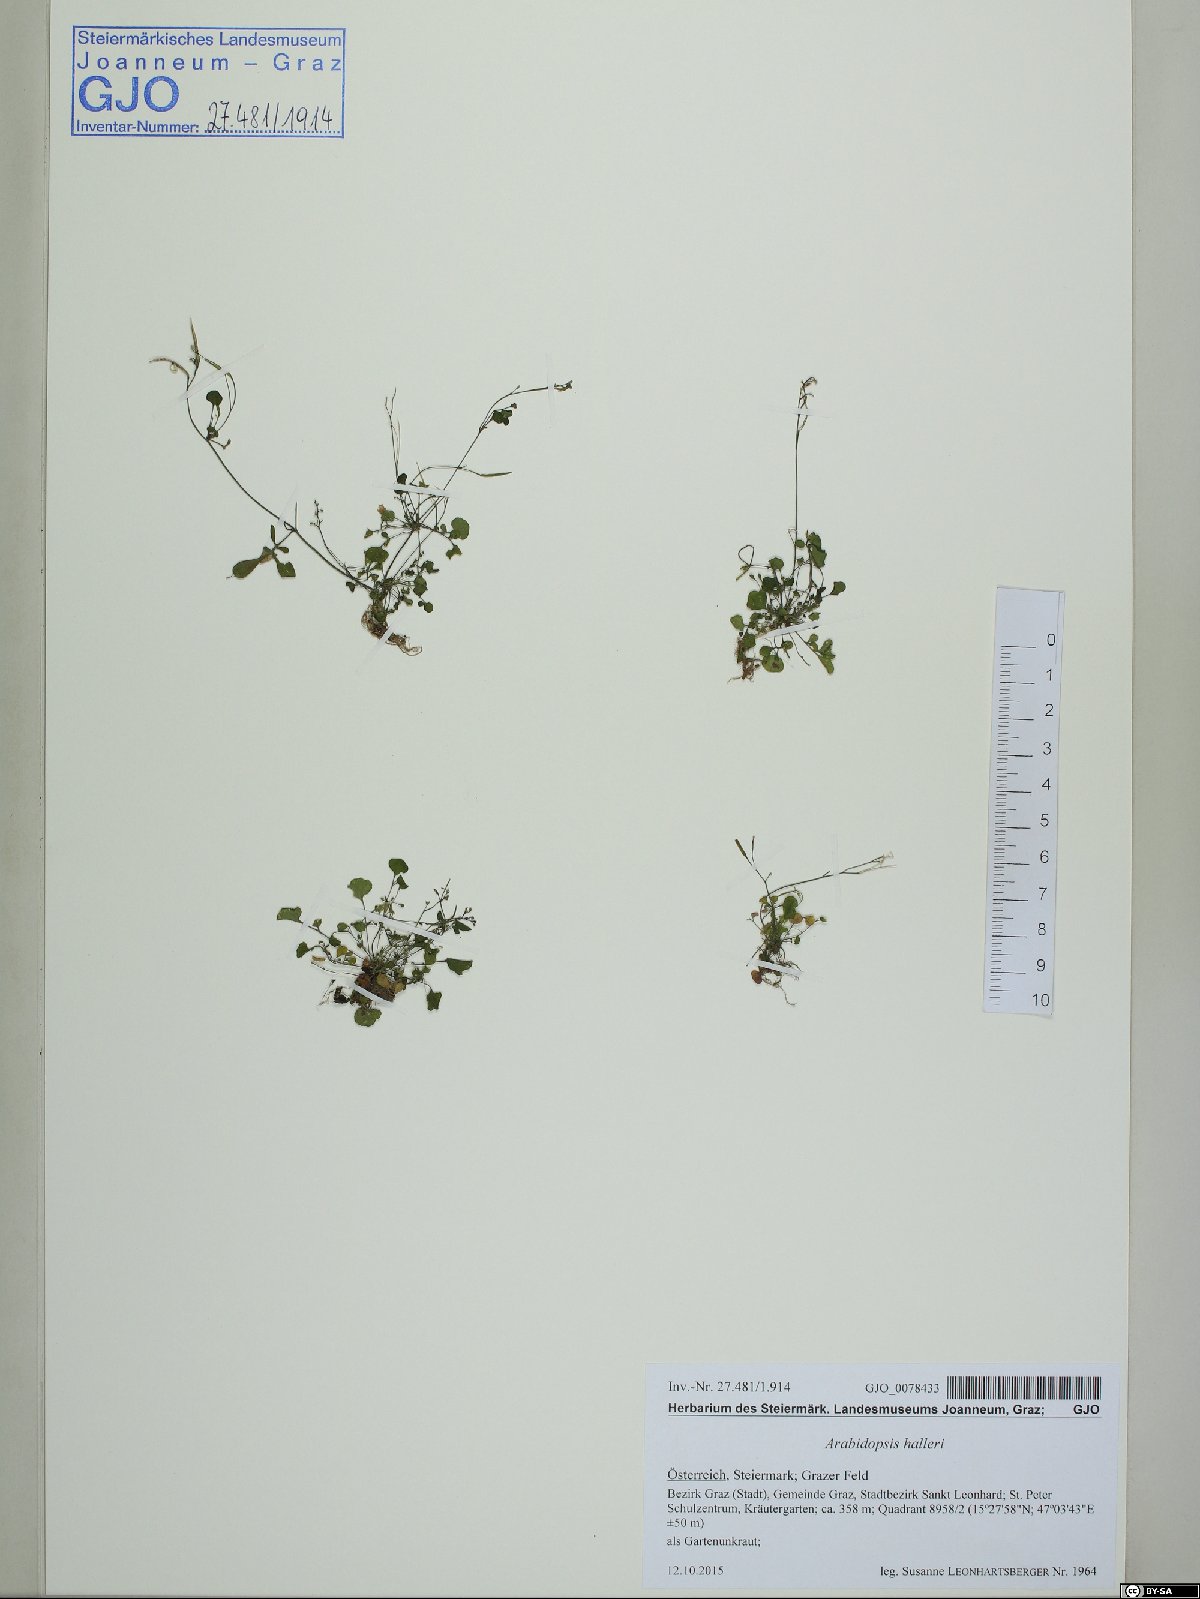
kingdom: Plantae
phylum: Tracheophyta
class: Magnoliopsida
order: Brassicales
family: Brassicaceae
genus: Arabidopsis
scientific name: Arabidopsis halleri
